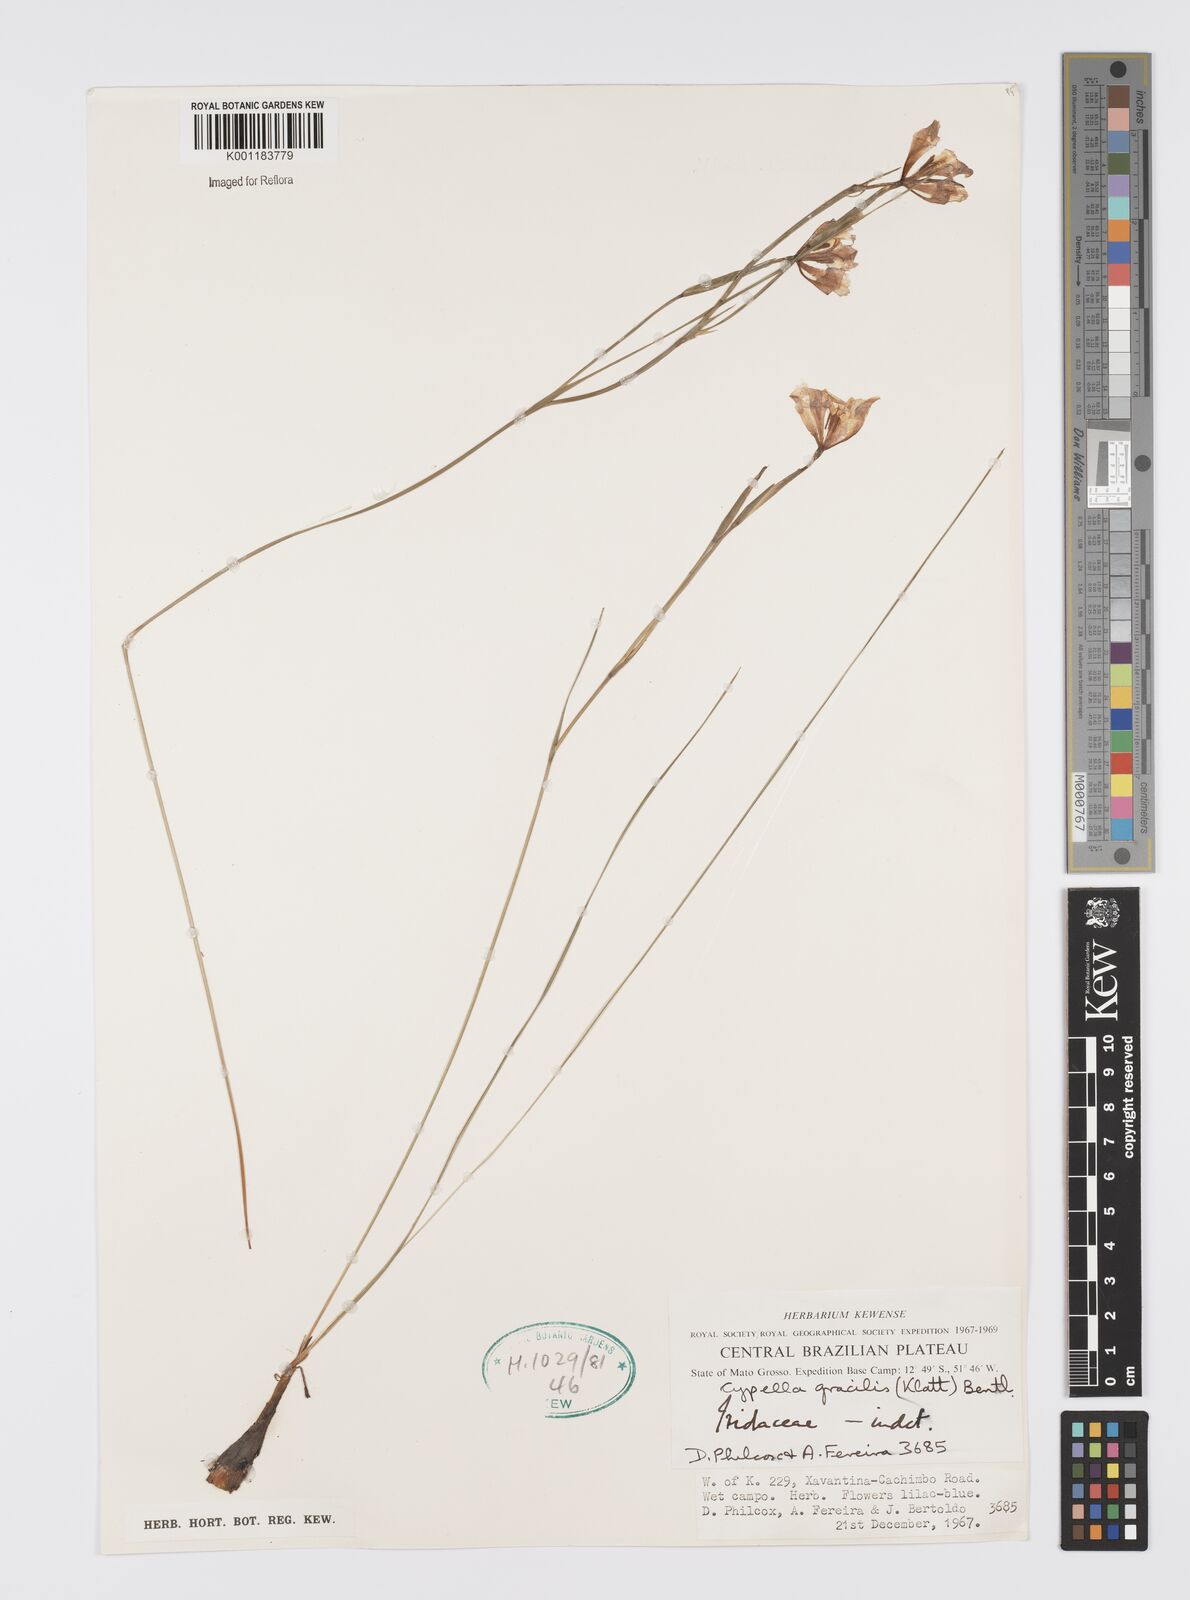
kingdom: Plantae
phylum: Tracheophyta
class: Liliopsida
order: Asparagales
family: Iridaceae
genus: Trimezia
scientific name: Trimezia gracilis
